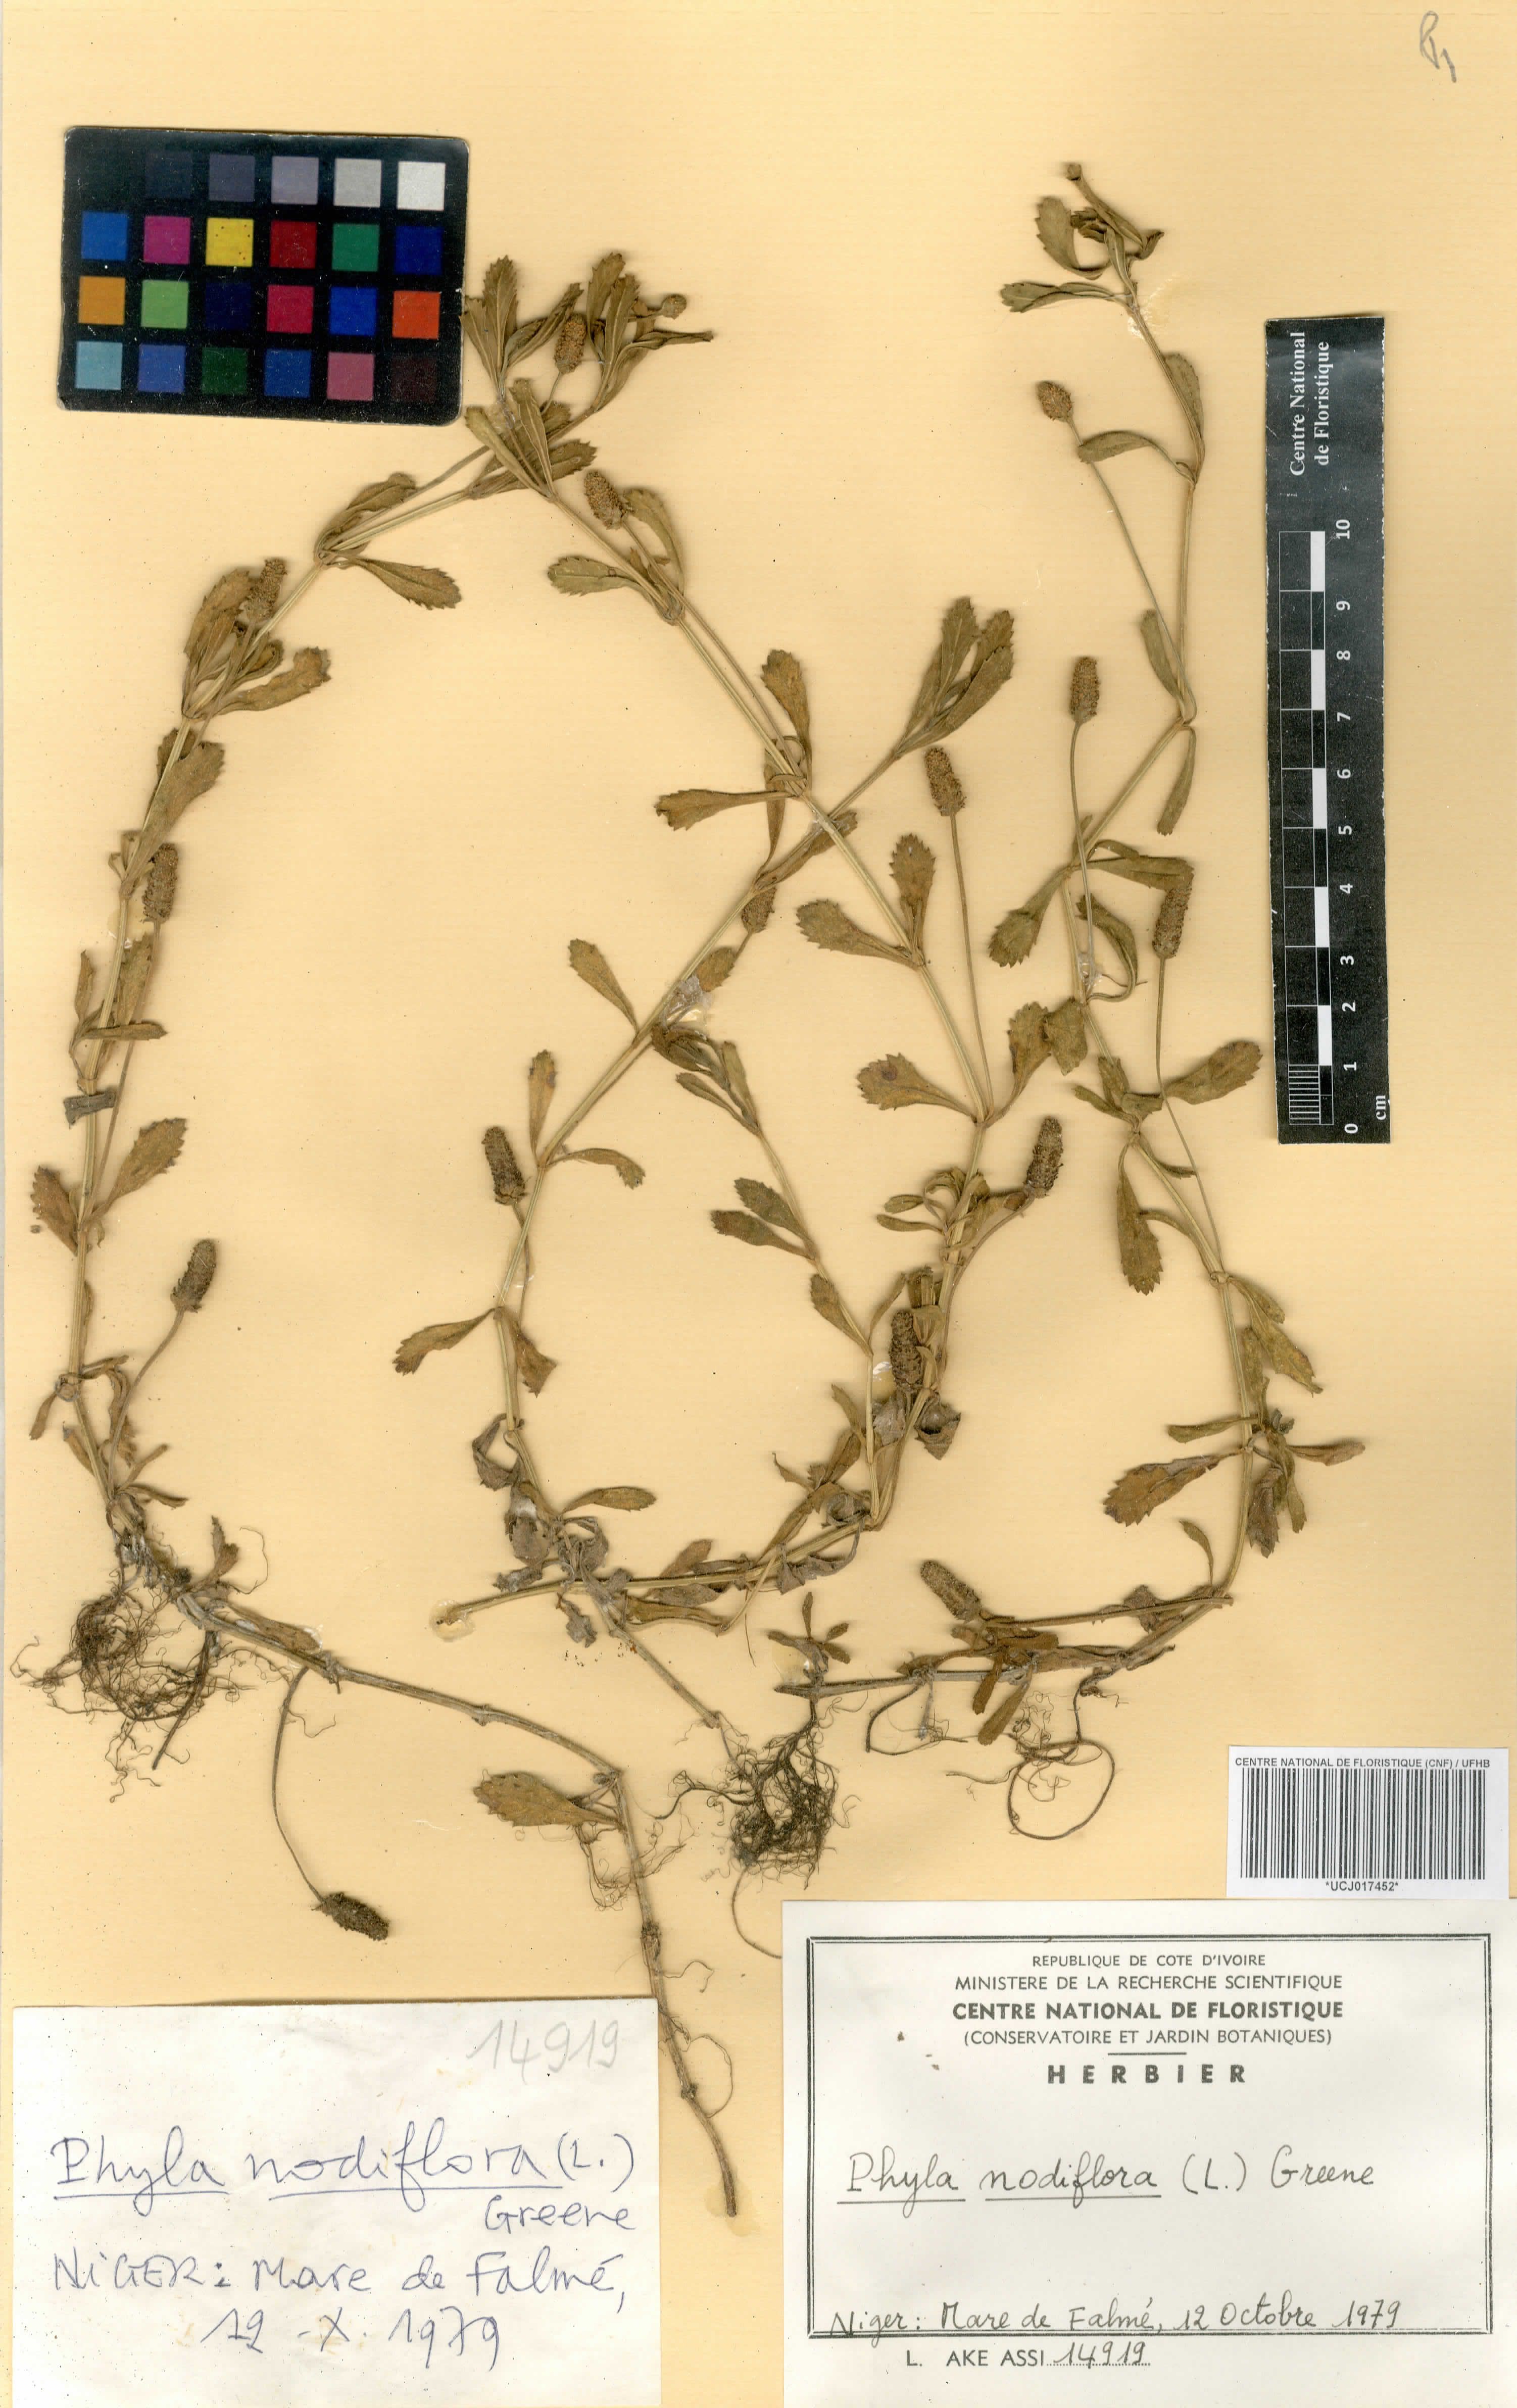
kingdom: Plantae
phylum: Tracheophyta
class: Magnoliopsida
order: Lamiales
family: Verbenaceae
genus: Phyla
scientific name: Phyla nodiflora
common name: Frogfruit
